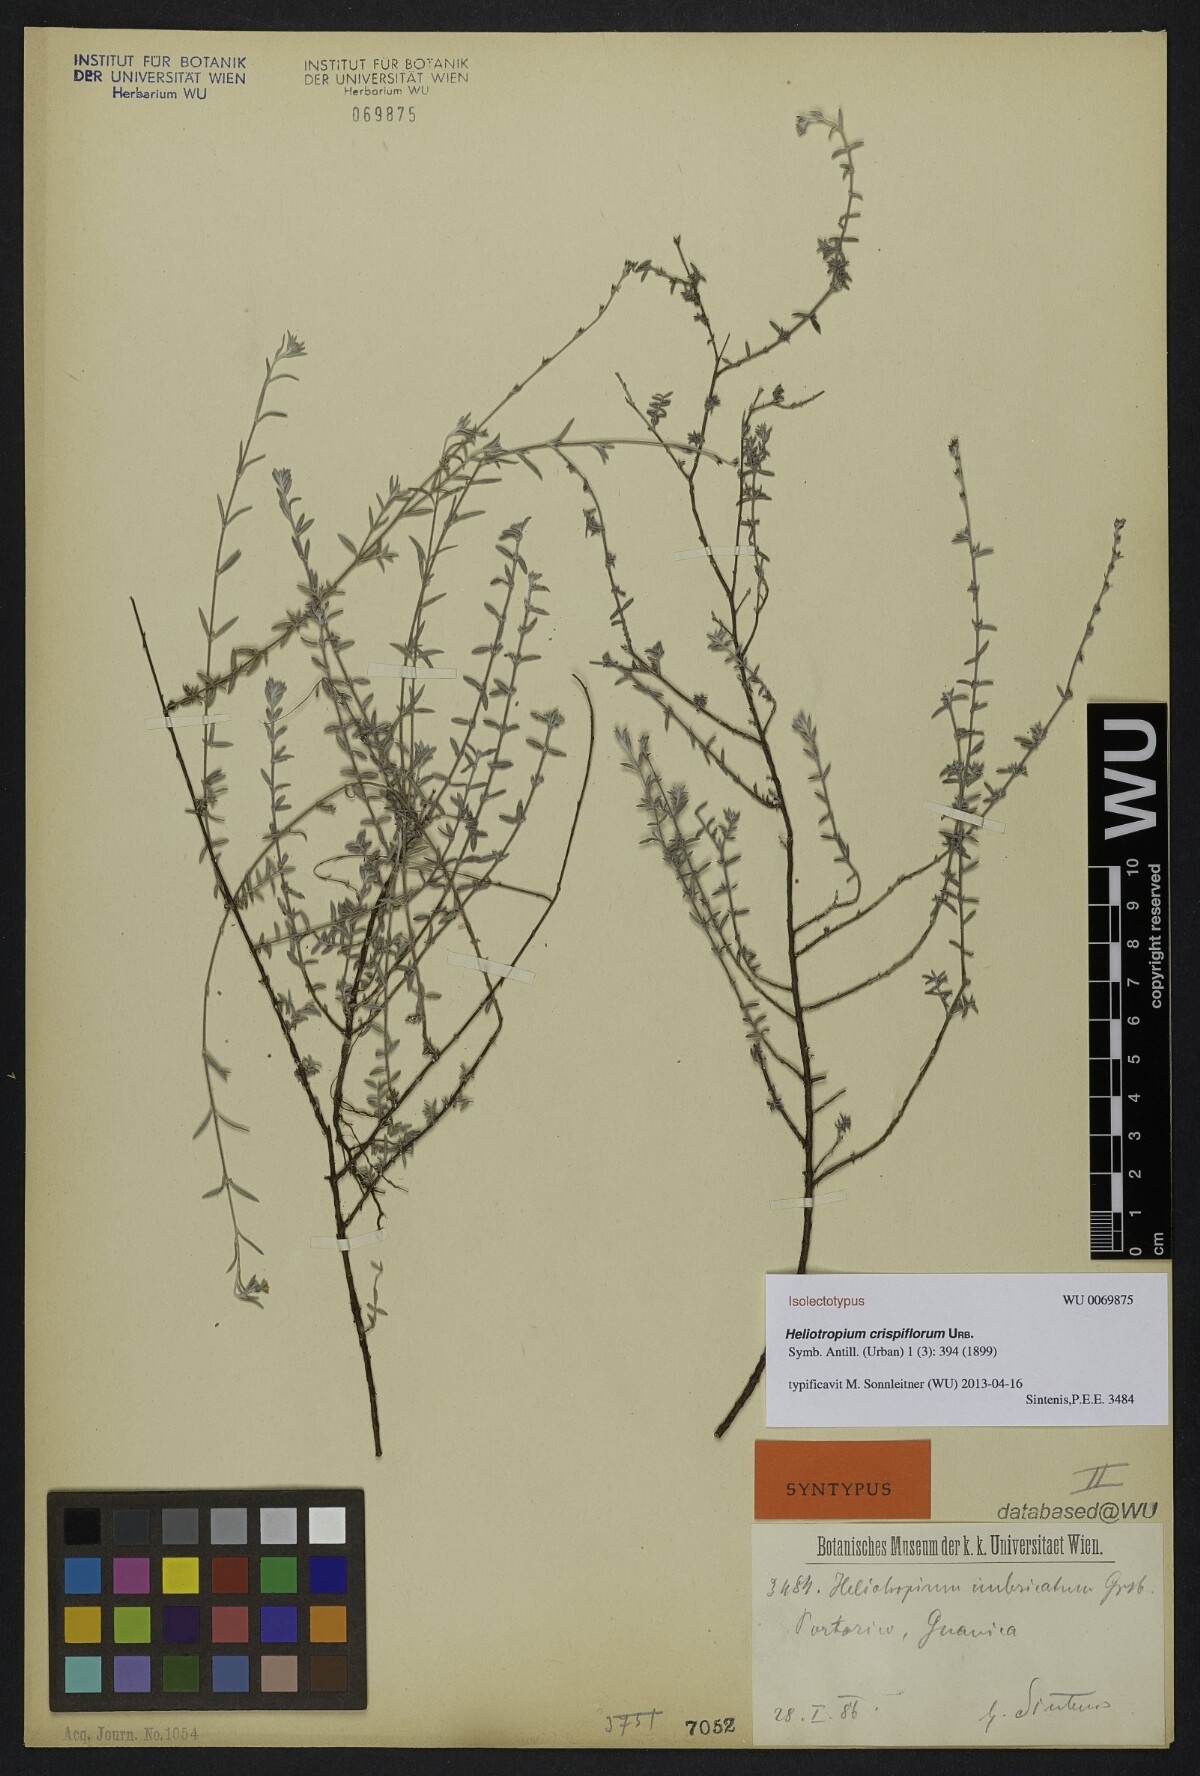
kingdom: Plantae
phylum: Tracheophyta
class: Magnoliopsida
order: Boraginales
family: Heliotropiaceae
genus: Euploca
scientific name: Euploca microphylla
